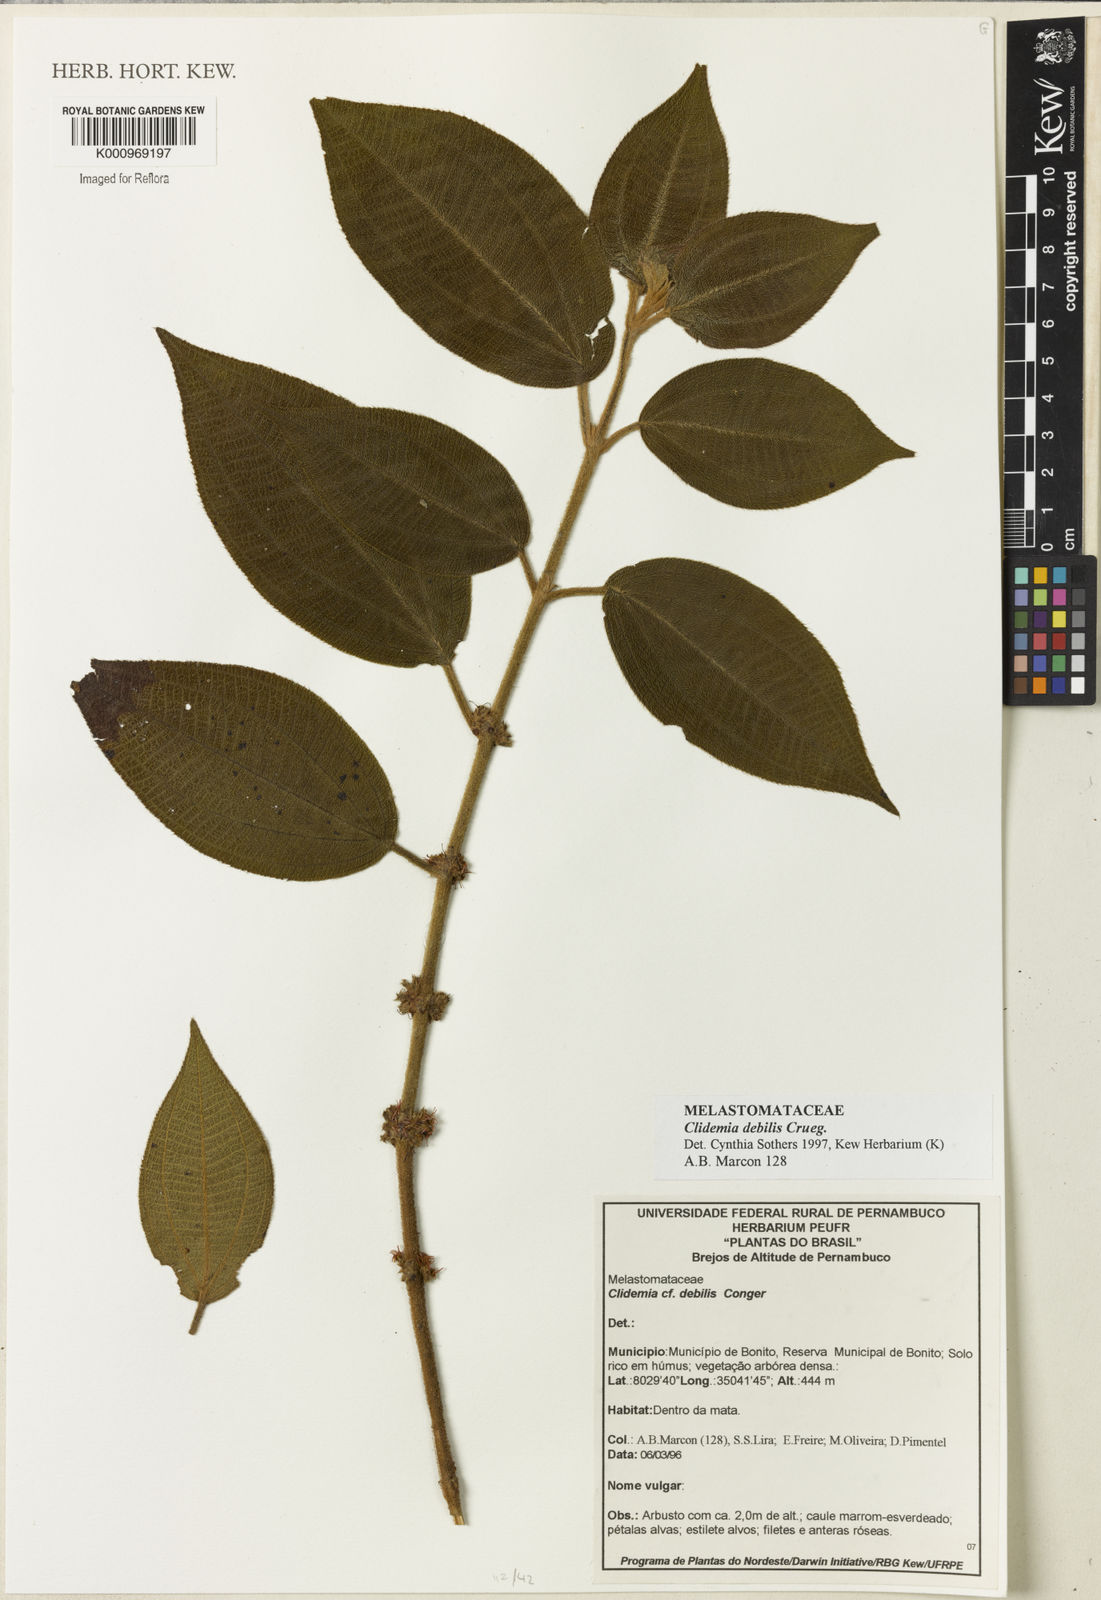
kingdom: Plantae
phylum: Tracheophyta
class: Magnoliopsida
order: Myrtales
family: Melastomataceae
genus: Miconia
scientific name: Miconia debilis
